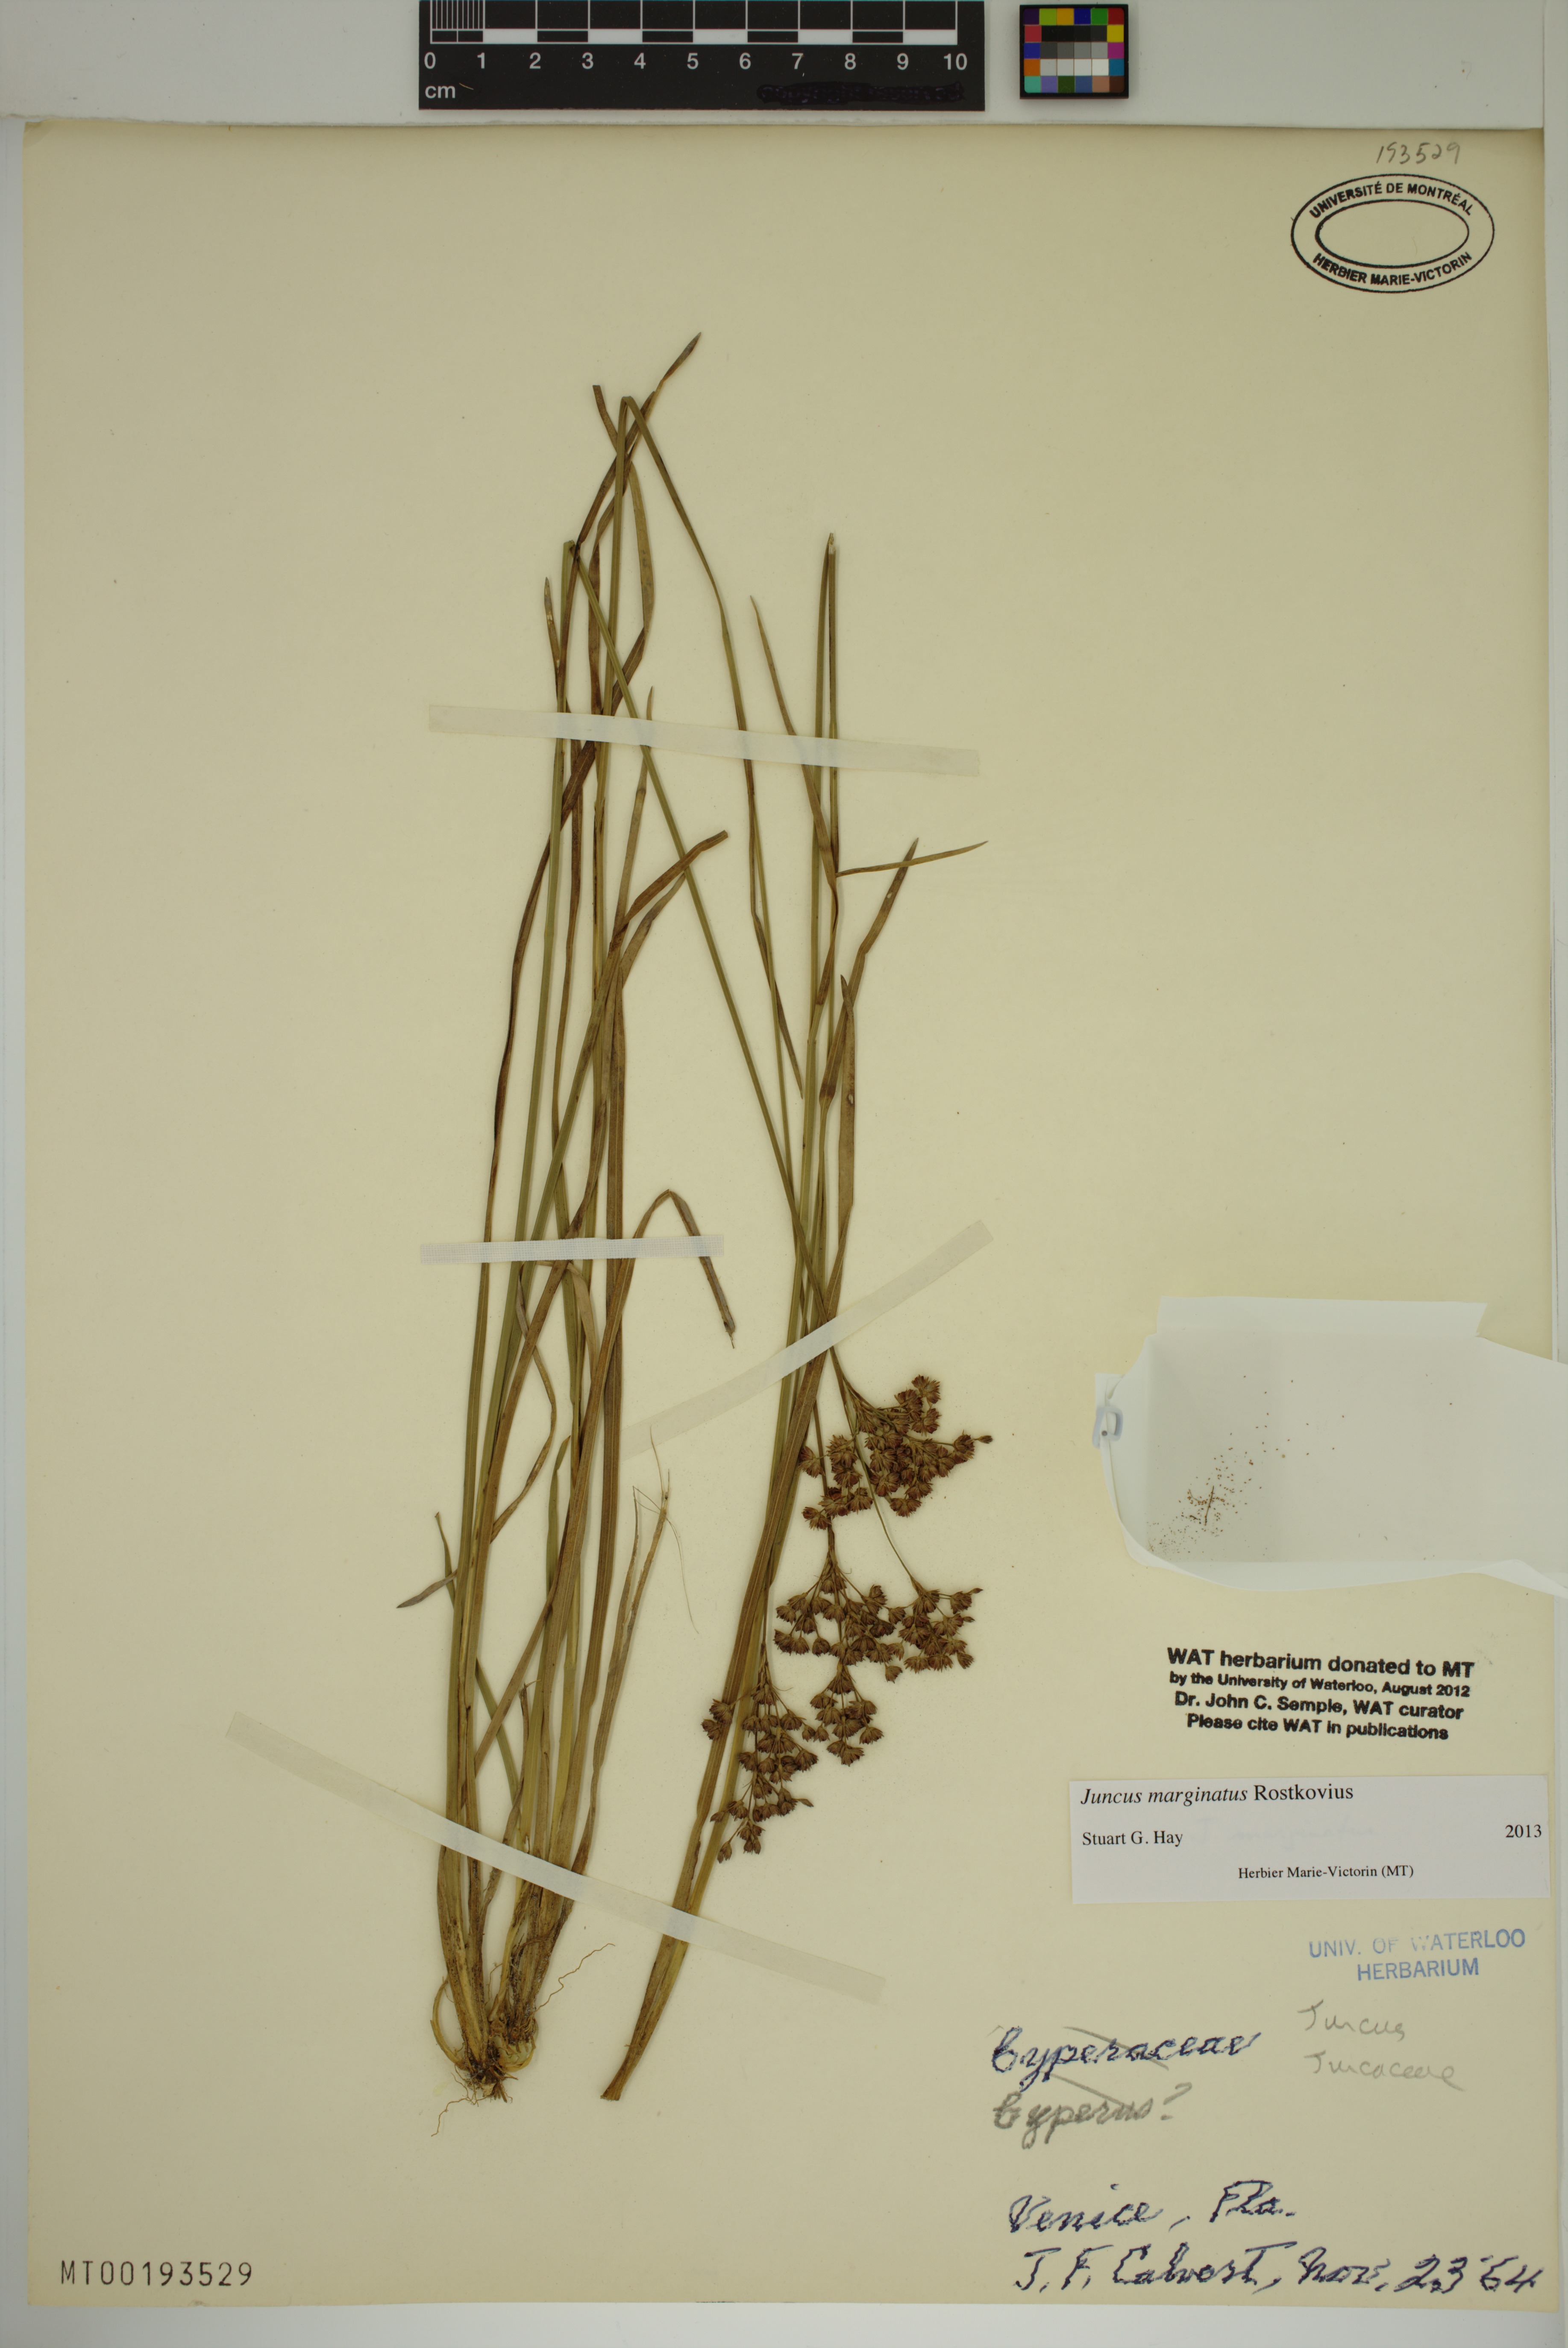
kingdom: Plantae
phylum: Tracheophyta
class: Liliopsida
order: Poales
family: Juncaceae
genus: Juncus
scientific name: Juncus marginatus
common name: Grass-leaf rush
